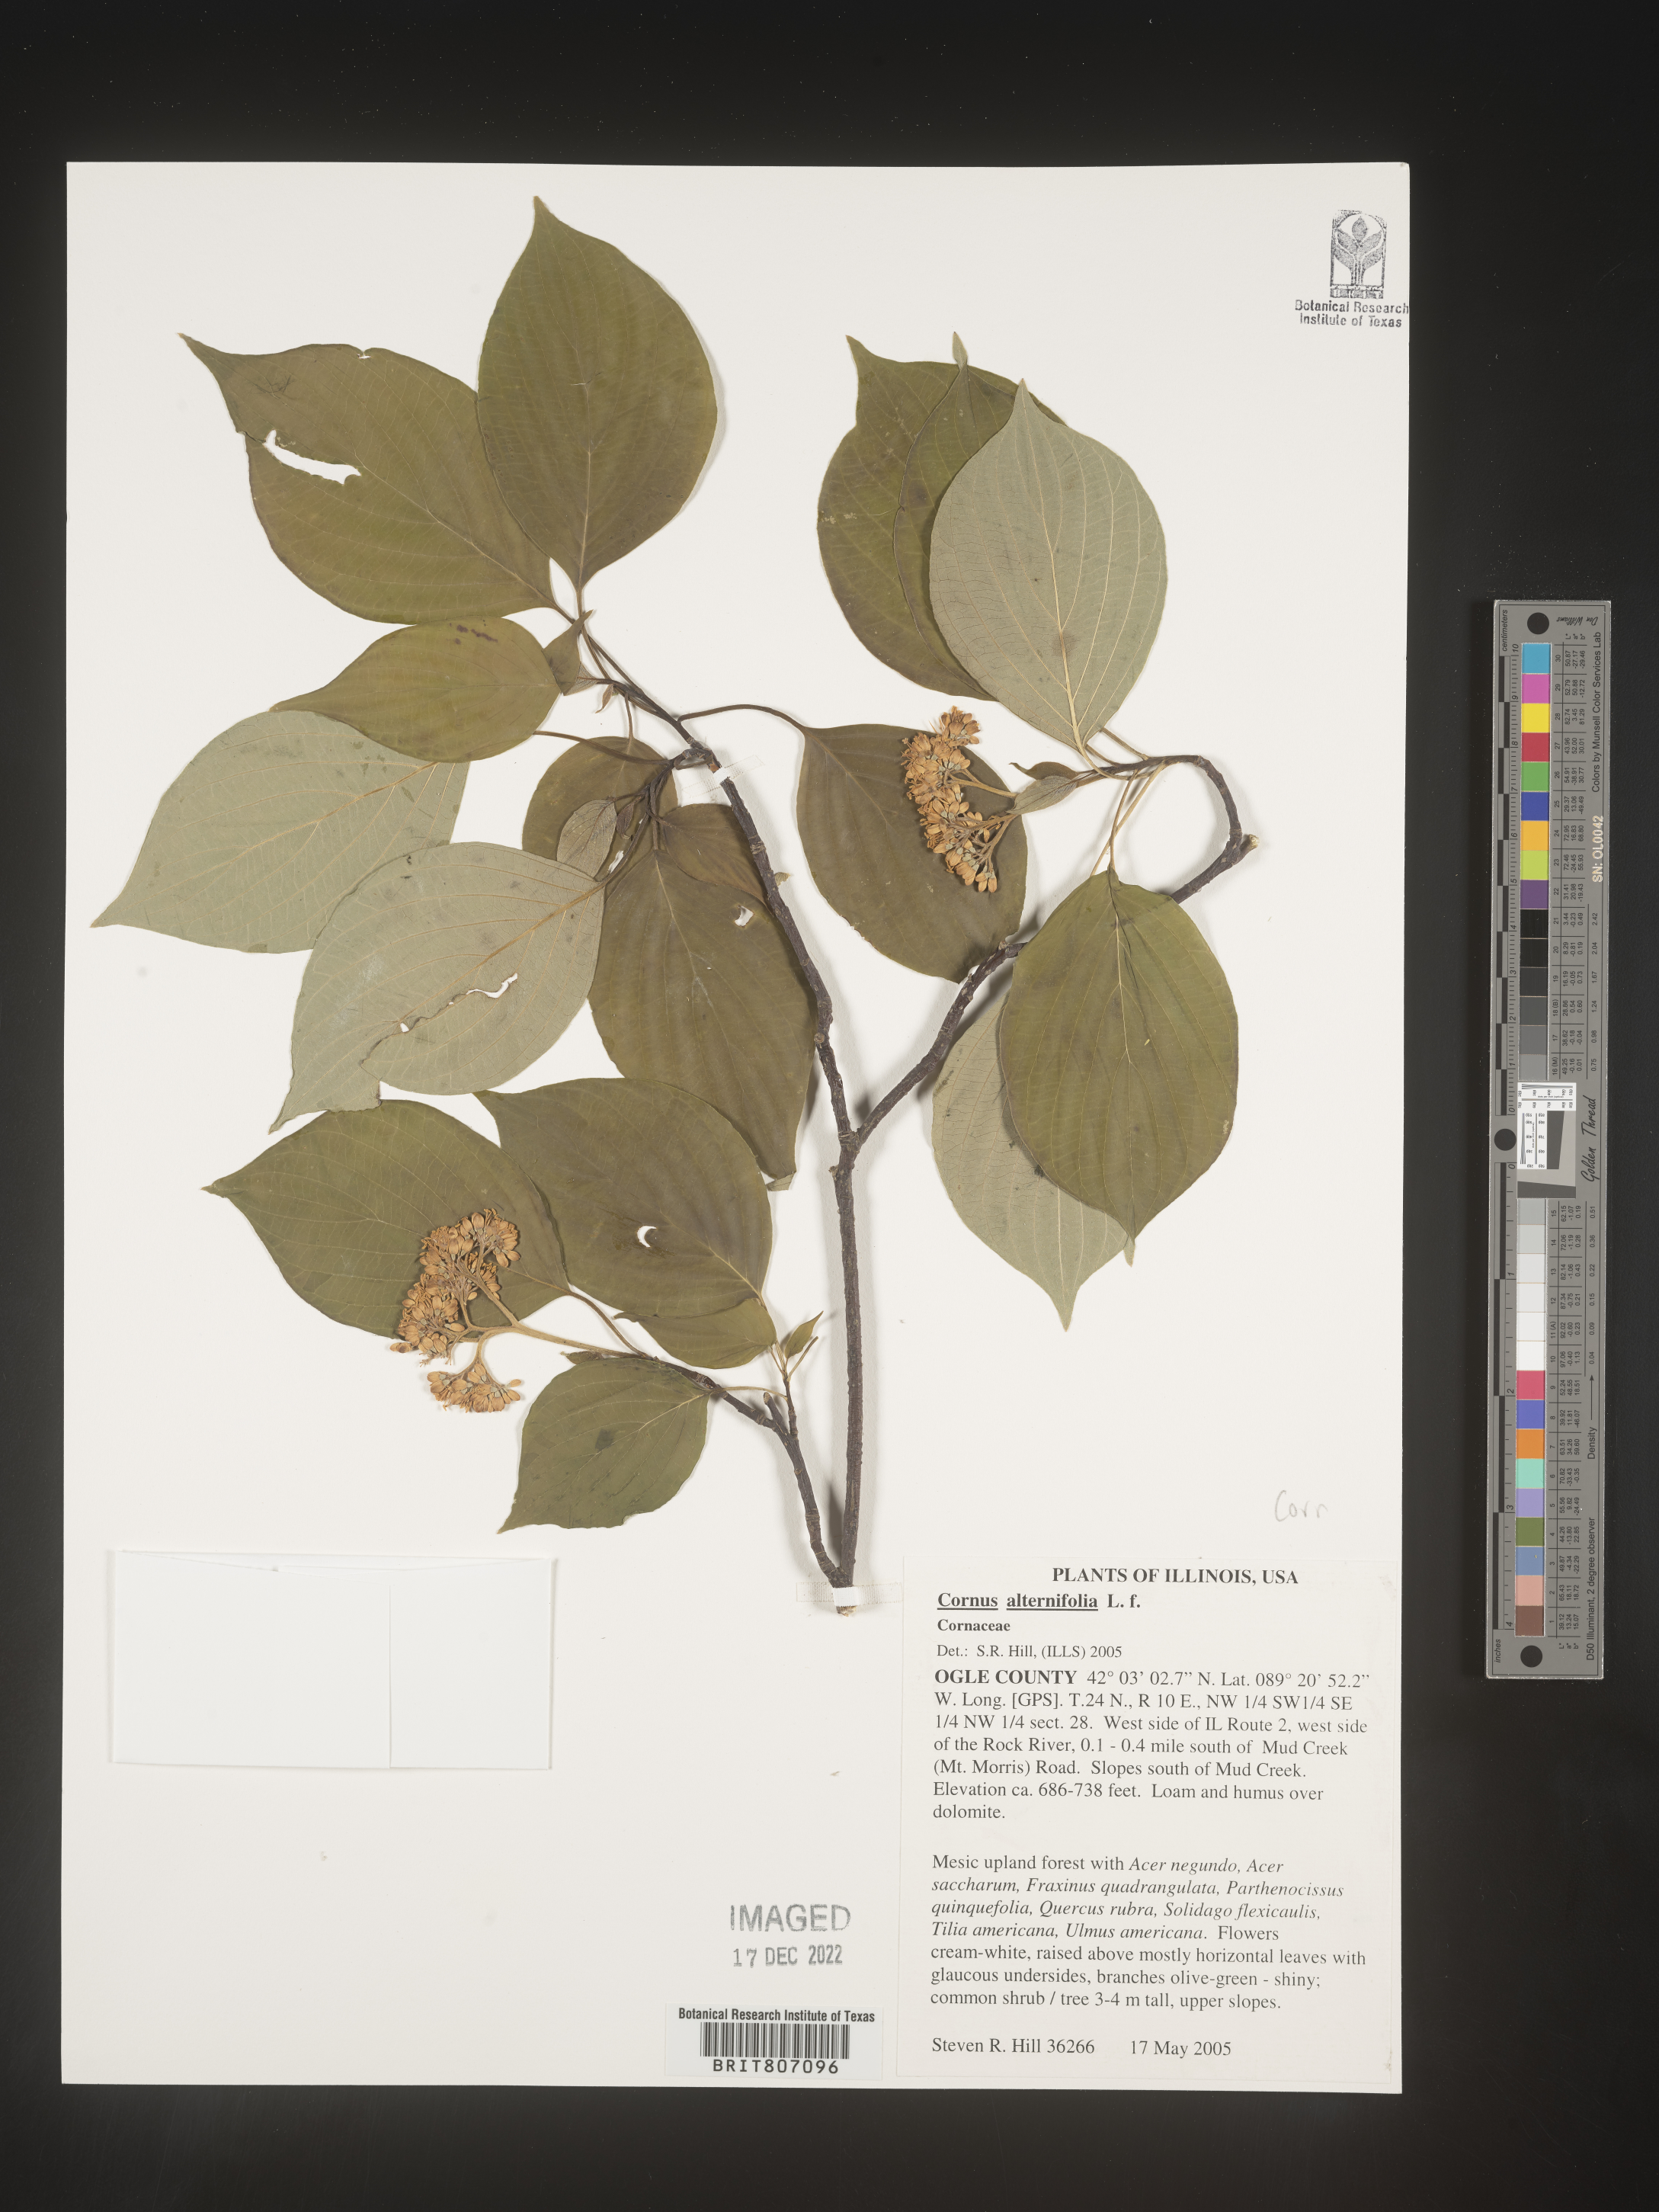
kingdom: Plantae
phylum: Tracheophyta
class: Magnoliopsida
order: Cornales
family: Cornaceae
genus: Cornus
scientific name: Cornus alternifolia
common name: Pagoda dogwood
